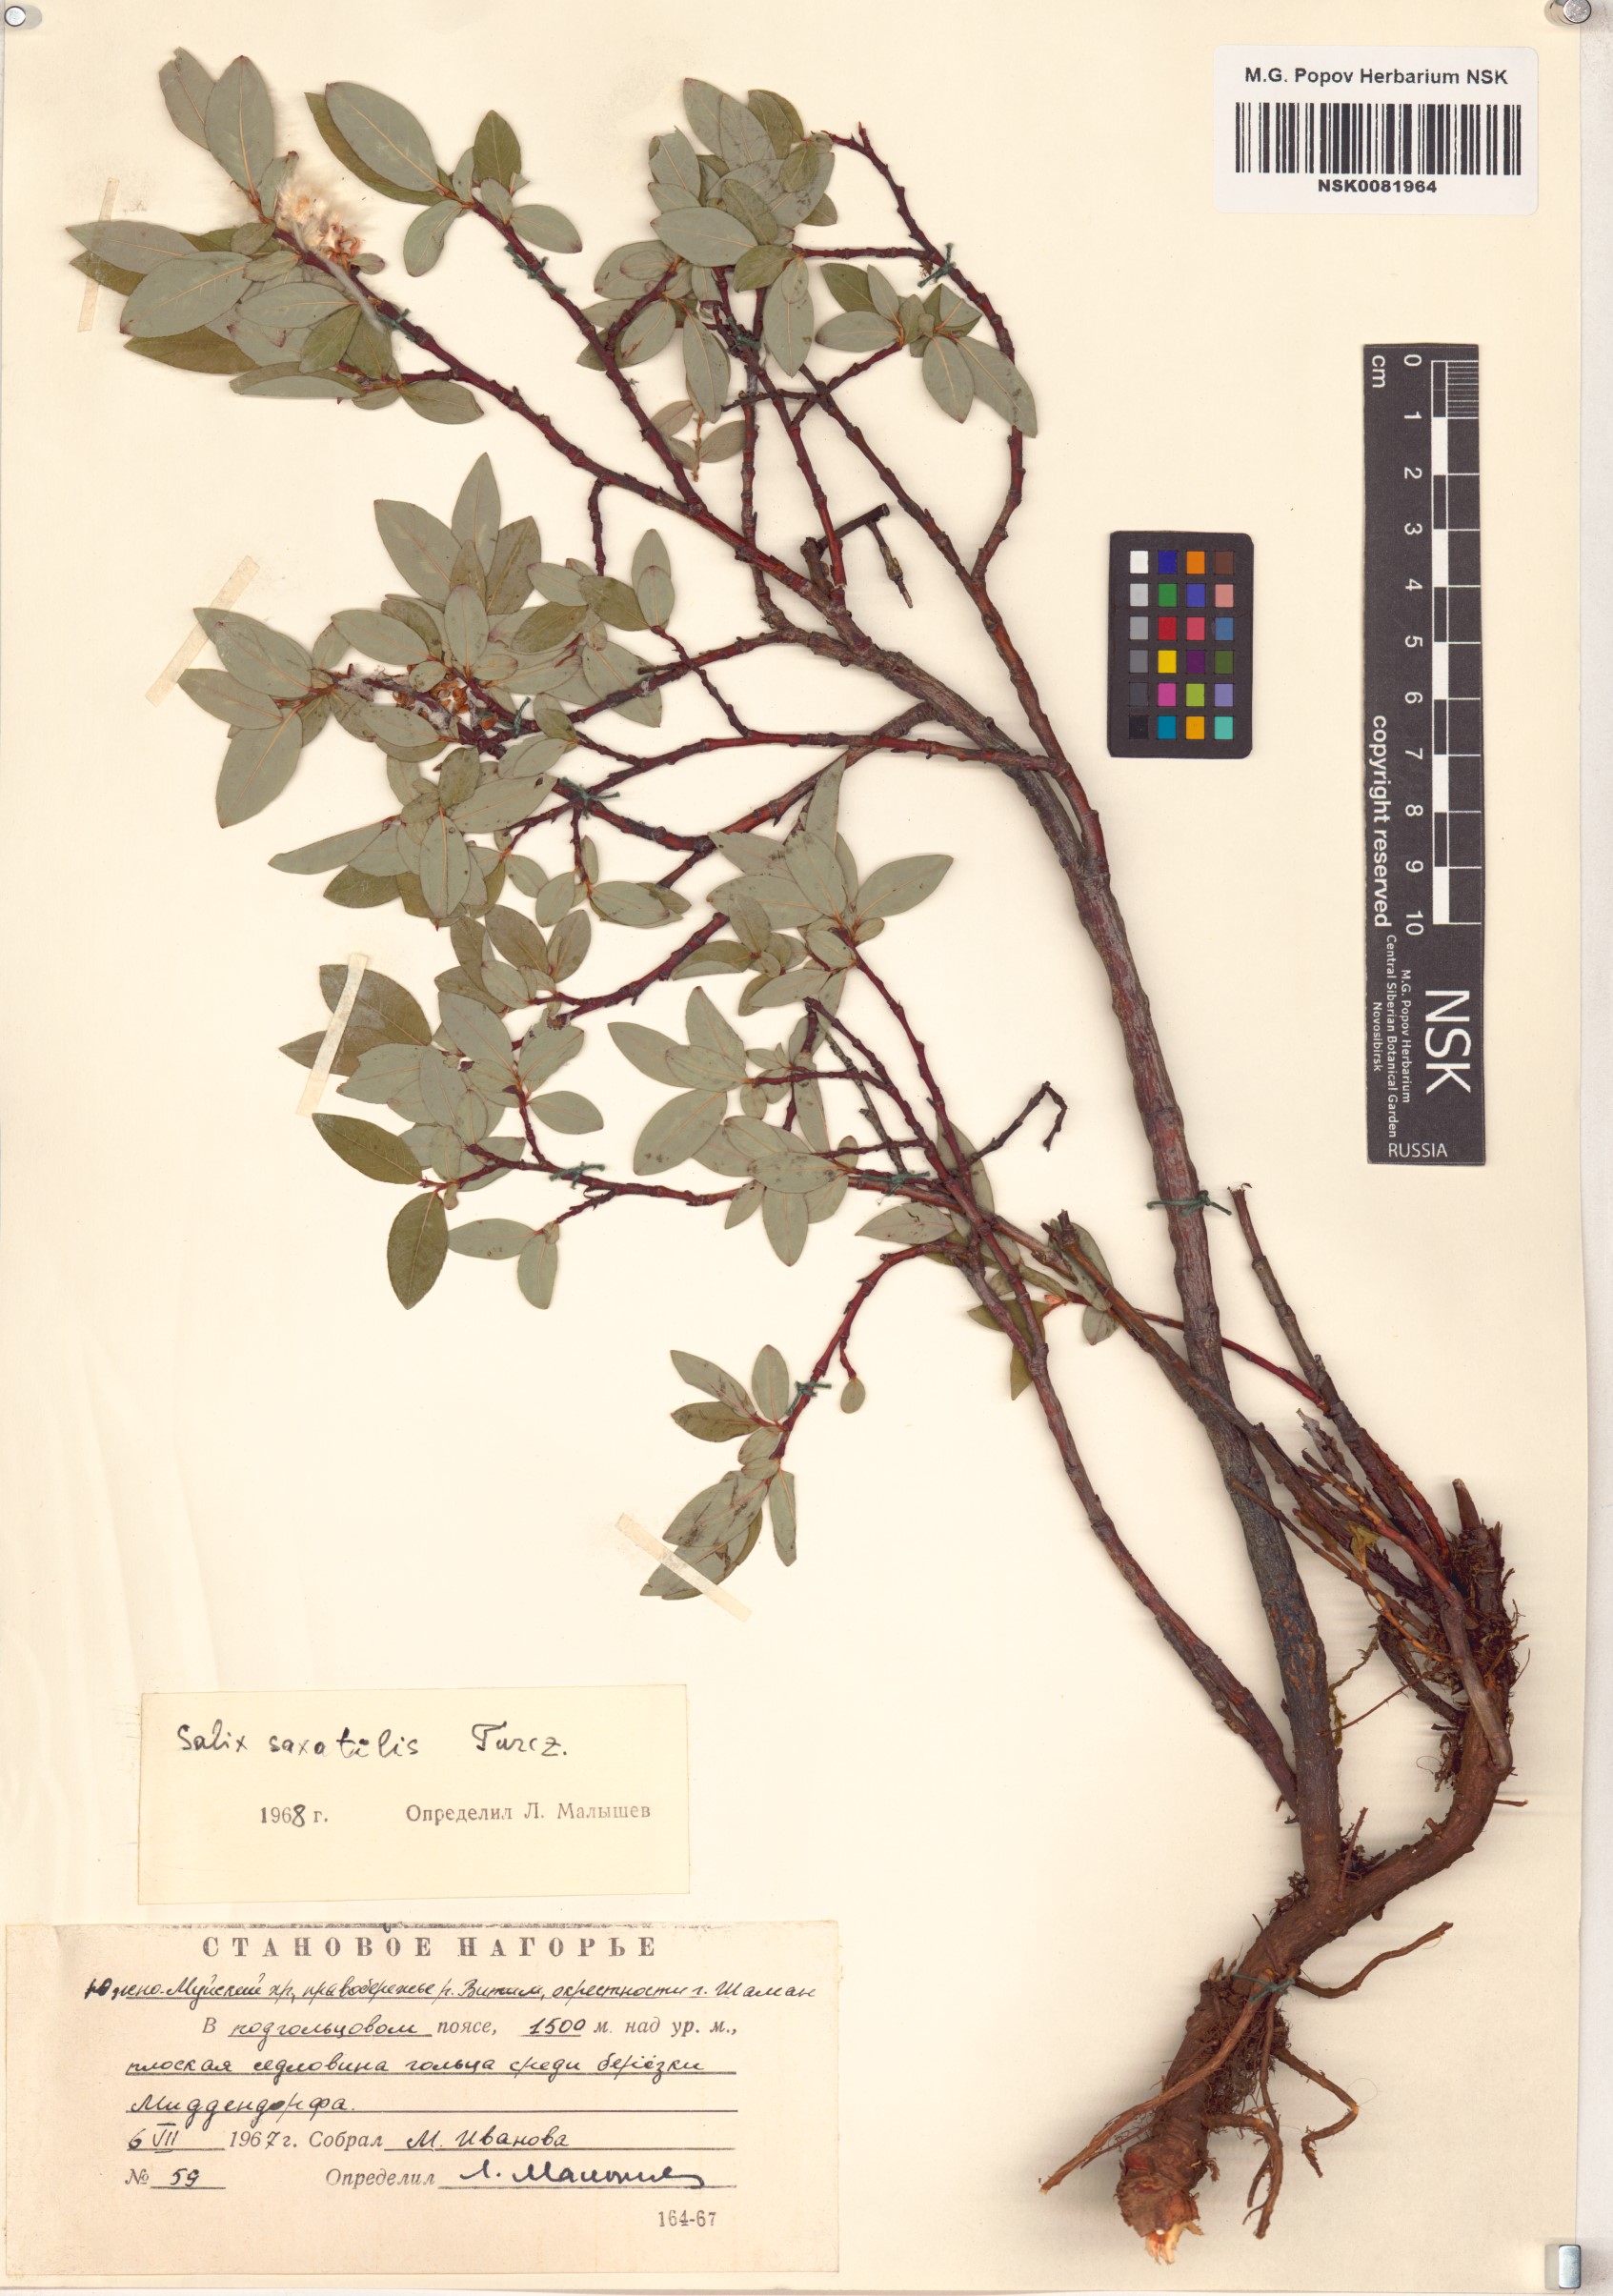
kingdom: Plantae
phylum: Tracheophyta
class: Magnoliopsida
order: Malpighiales
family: Salicaceae
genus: Salix
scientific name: Salix saxatilis
